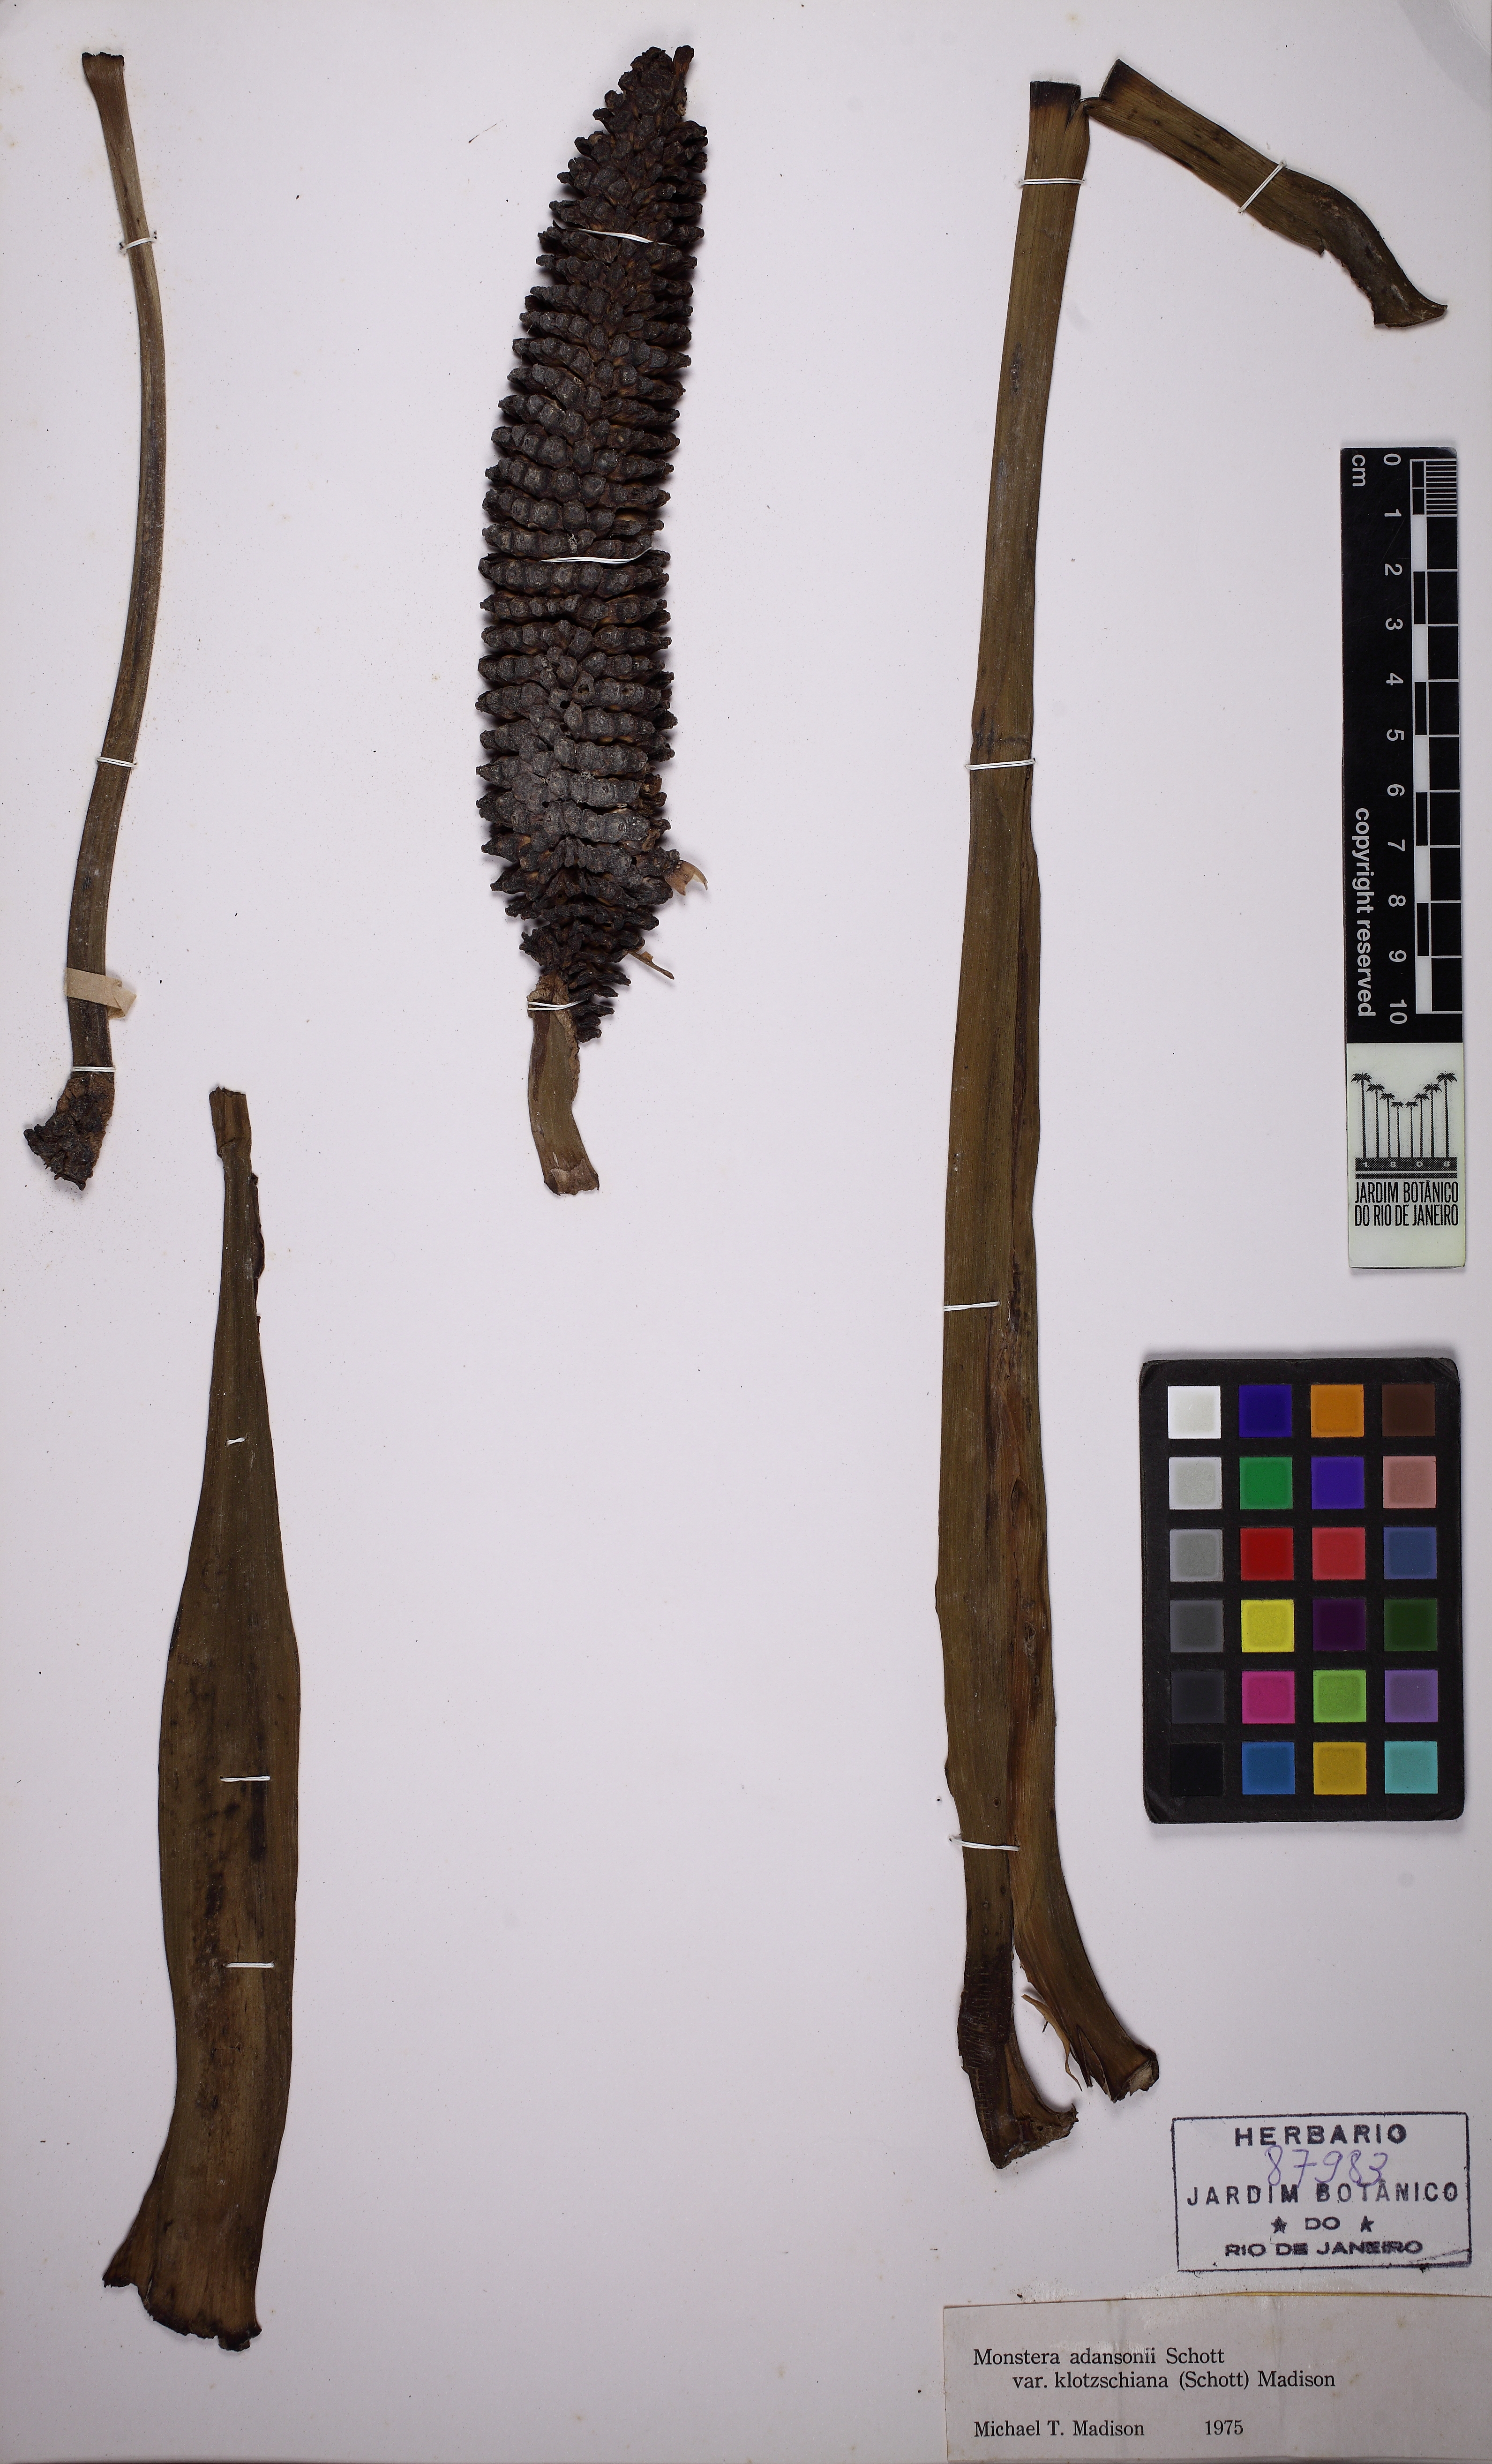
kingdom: Plantae
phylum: Tracheophyta
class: Liliopsida
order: Alismatales
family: Araceae
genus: Monstera
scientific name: Monstera adansonii
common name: Tarovine
